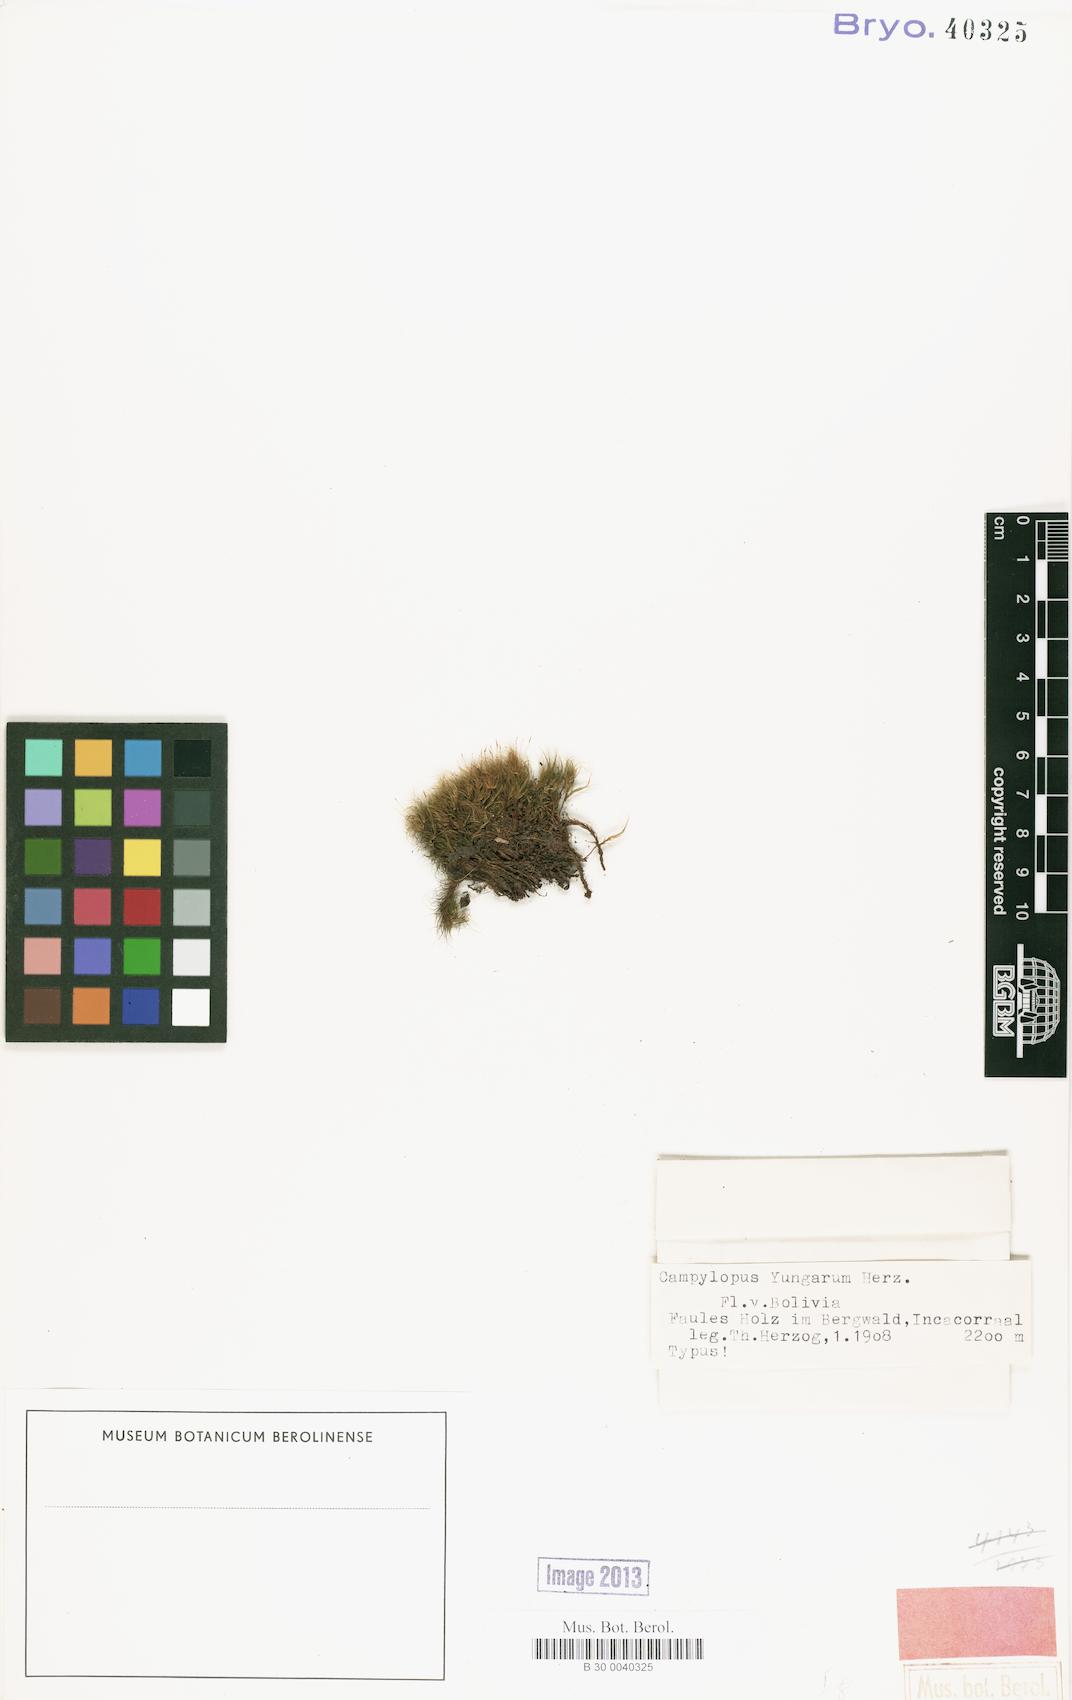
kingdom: Plantae
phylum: Bryophyta
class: Bryopsida
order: Dicranales
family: Leucobryaceae
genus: Campylopus
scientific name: Campylopus densicoma
